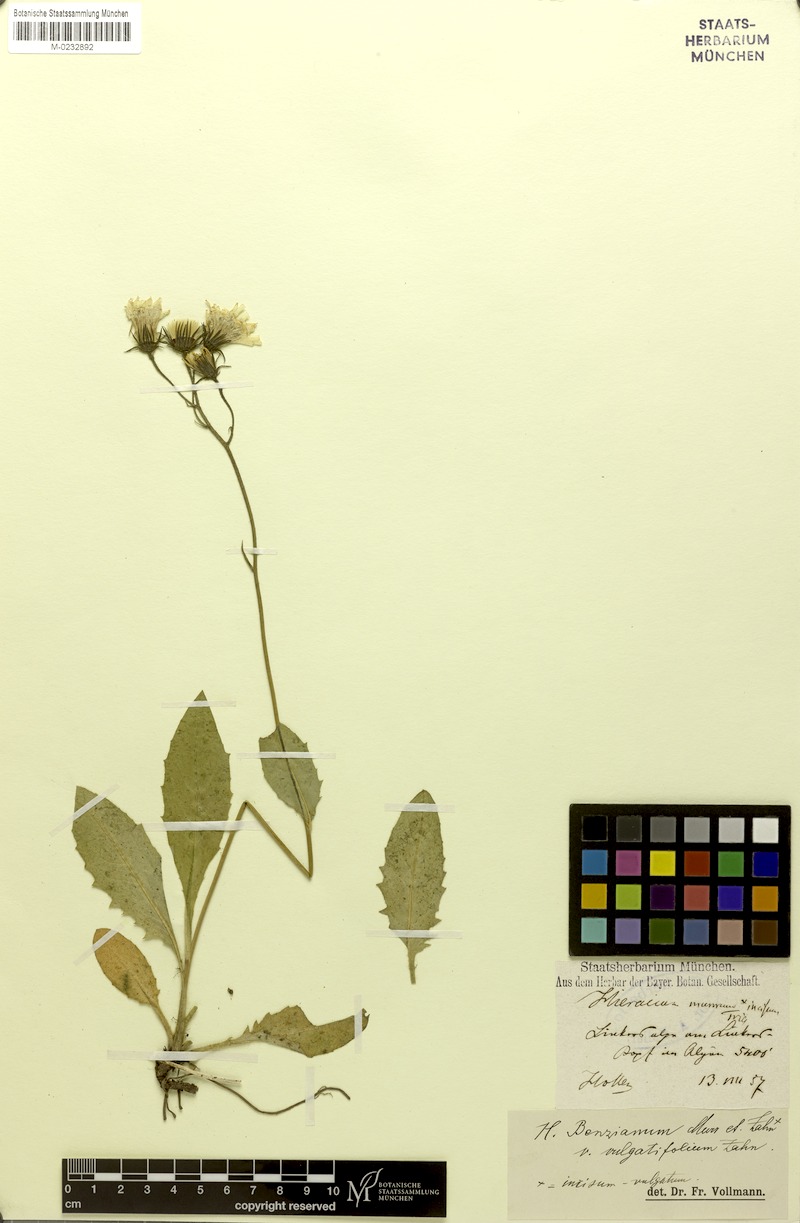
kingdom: Plantae
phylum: Tracheophyta
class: Magnoliopsida
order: Asterales
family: Asteraceae
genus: Hieracium
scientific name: Hieracium benzianum
